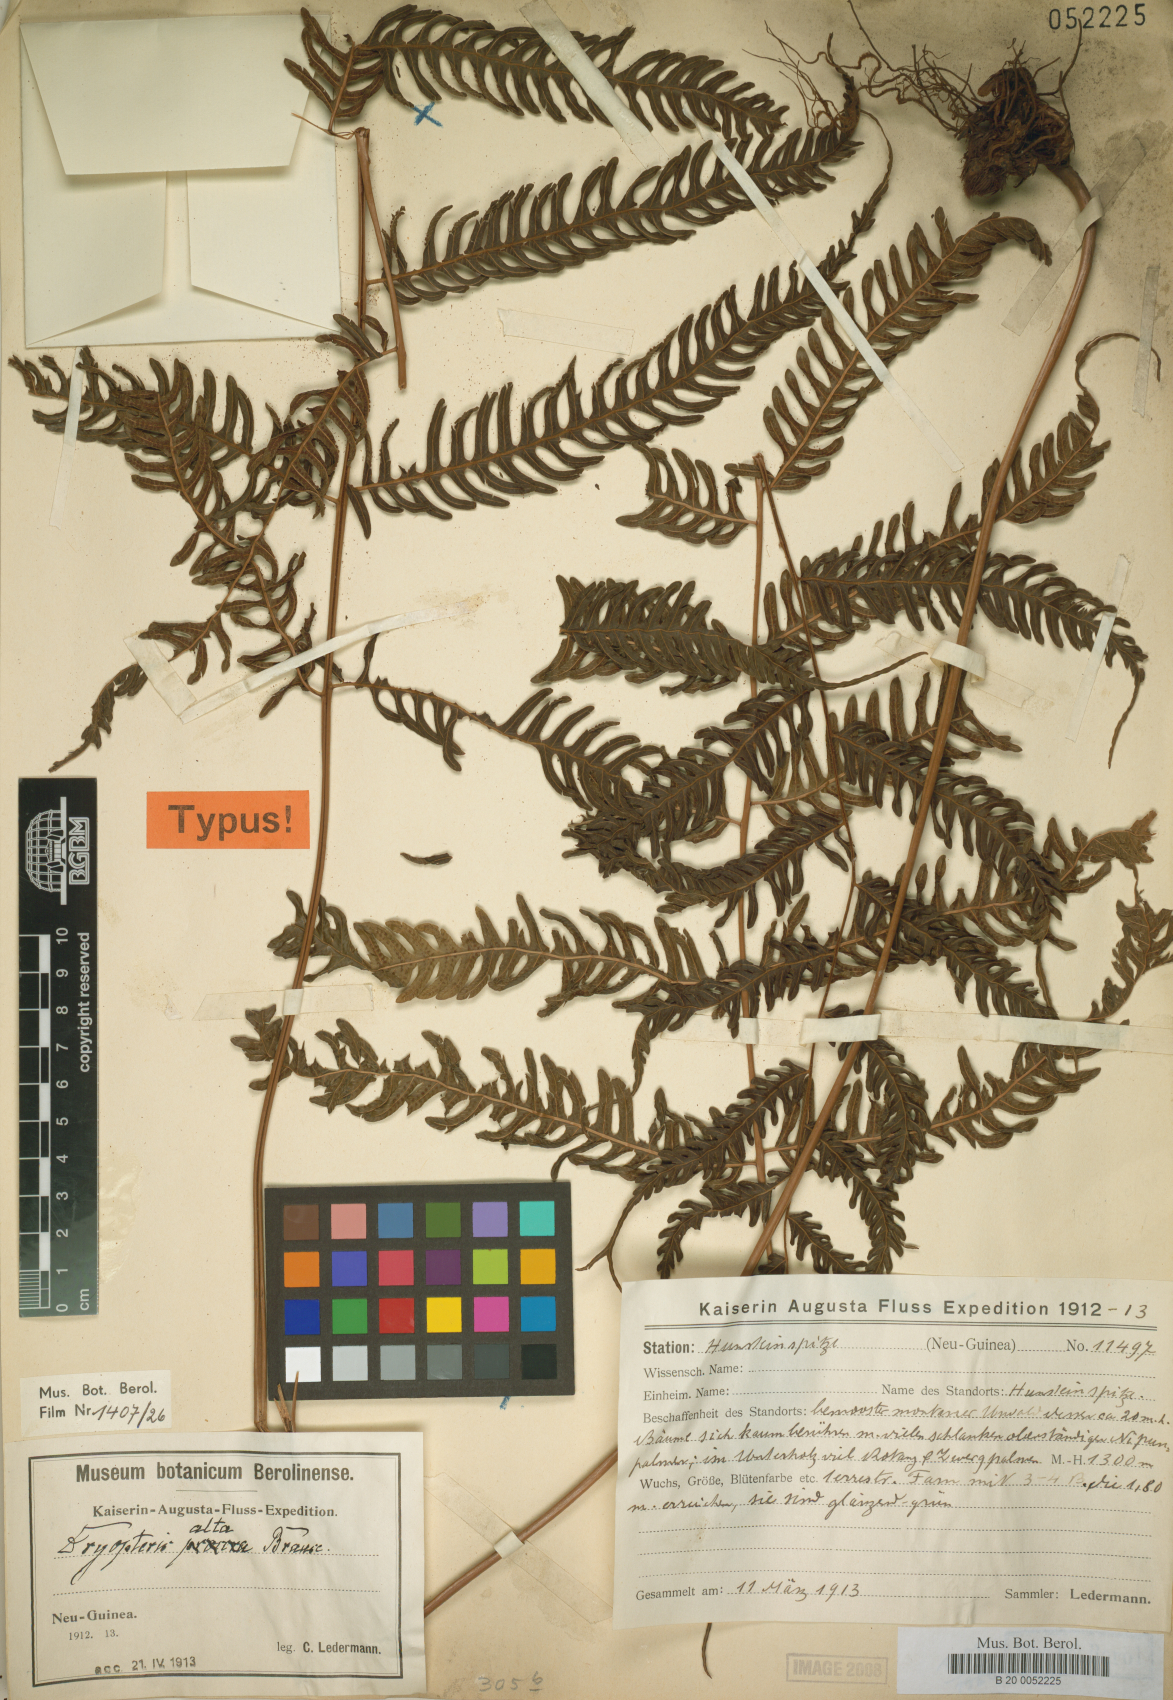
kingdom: Plantae
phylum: Tracheophyta
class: Polypodiopsida
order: Polypodiales
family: Thelypteridaceae
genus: Plesioneuron
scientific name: Plesioneuron altum
